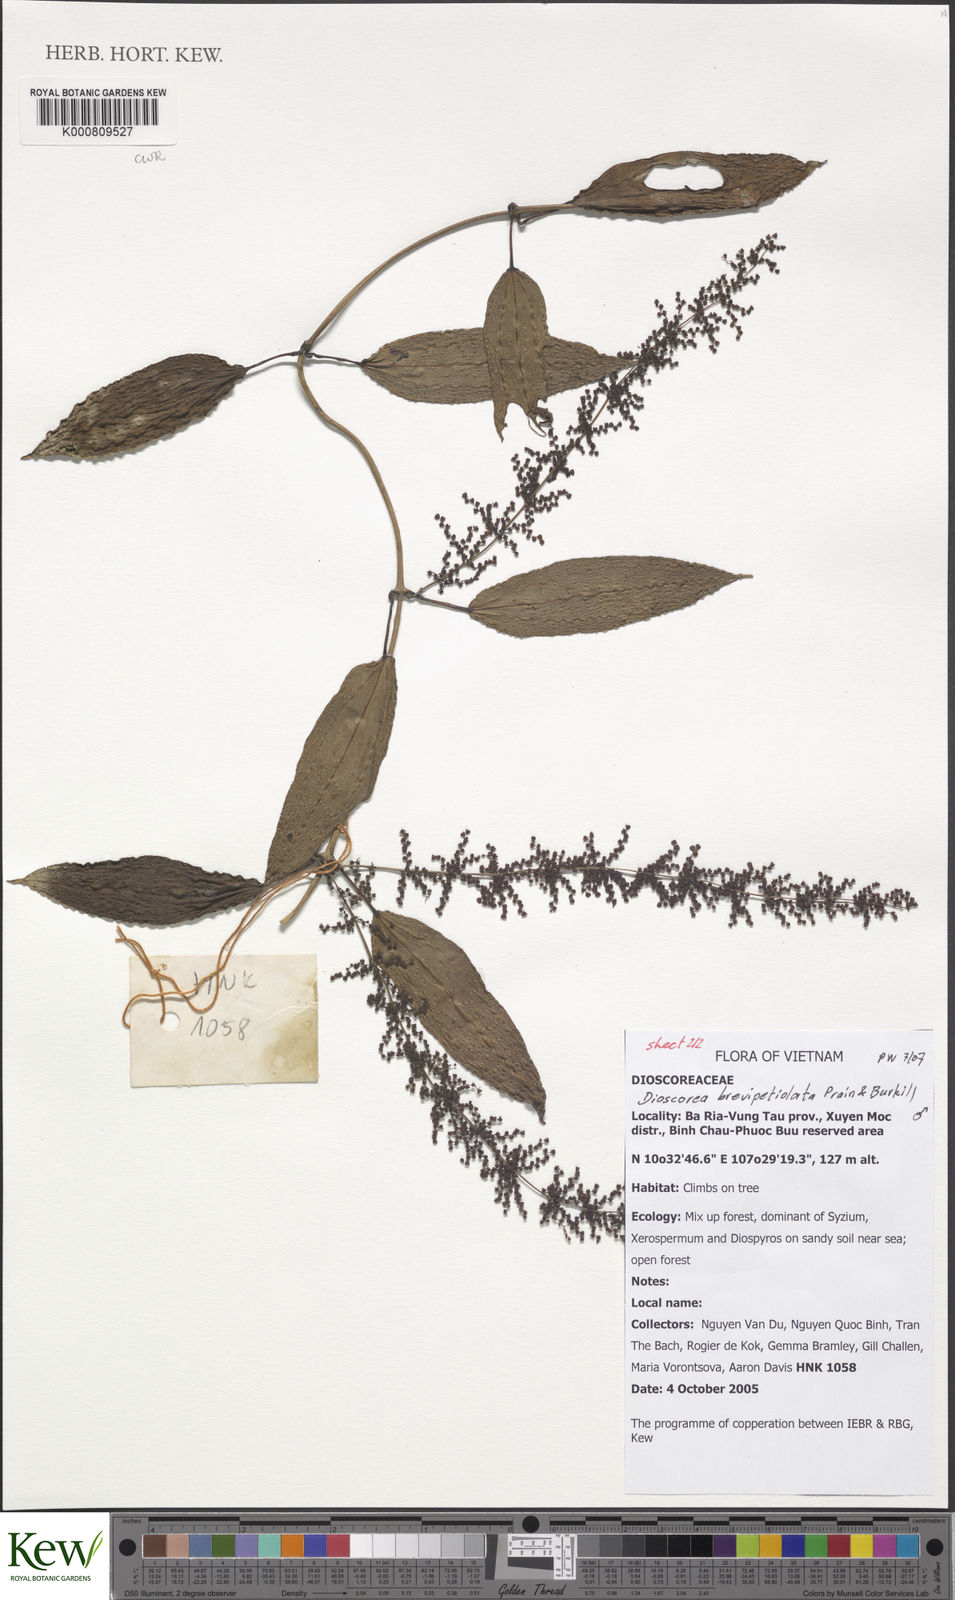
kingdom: Plantae
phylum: Tracheophyta
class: Liliopsida
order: Dioscoreales
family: Dioscoreaceae
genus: Dioscorea
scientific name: Dioscorea brevipetiolata
